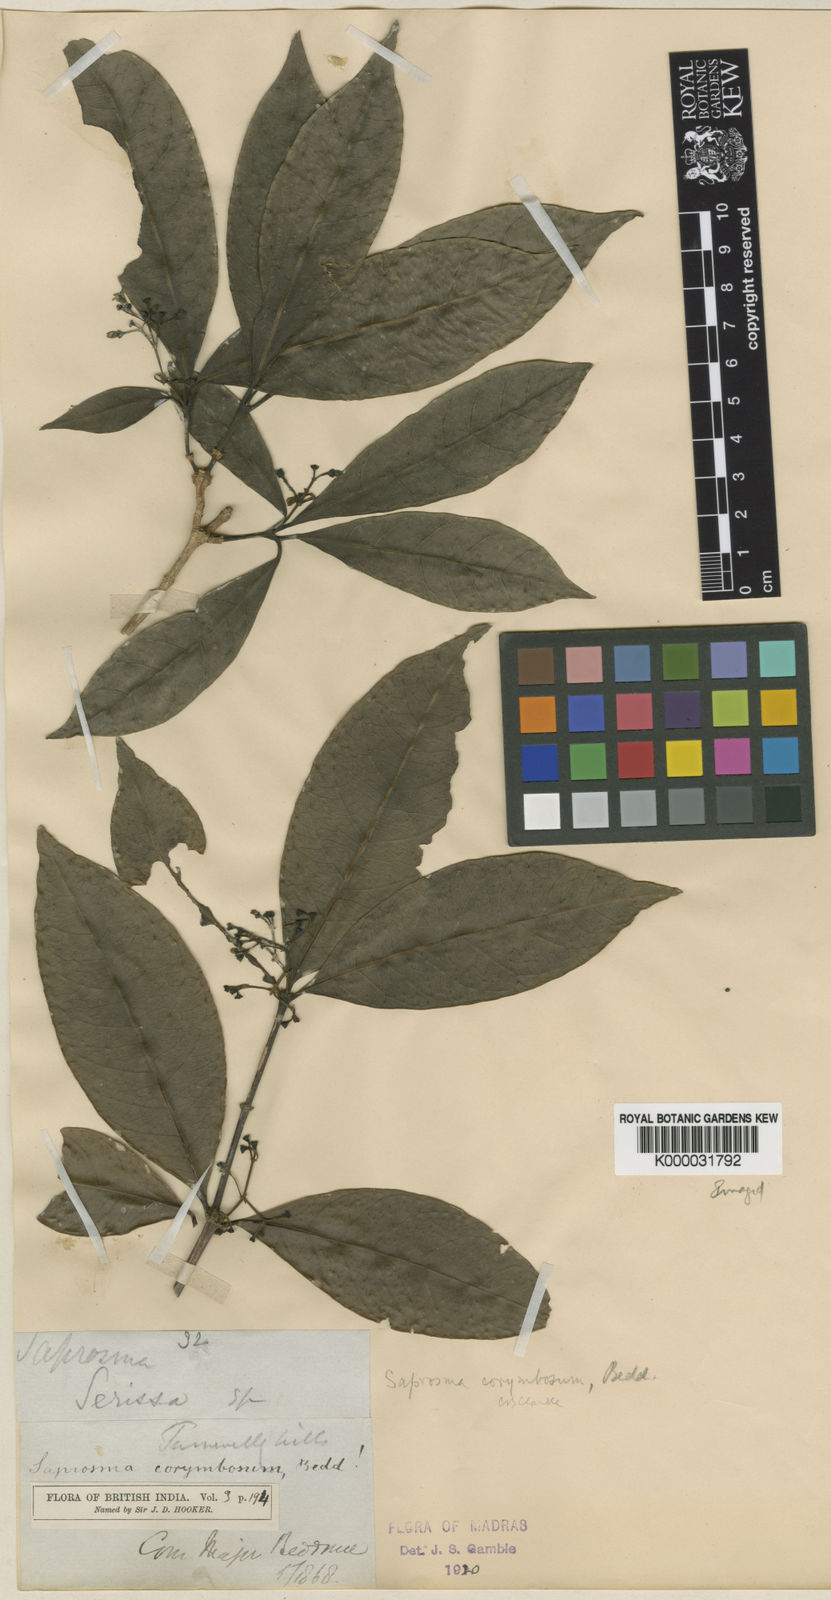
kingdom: Plantae
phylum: Tracheophyta
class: Magnoliopsida
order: Gentianales
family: Rubiaceae
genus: Saprosma
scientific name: Saprosma corymbosa
